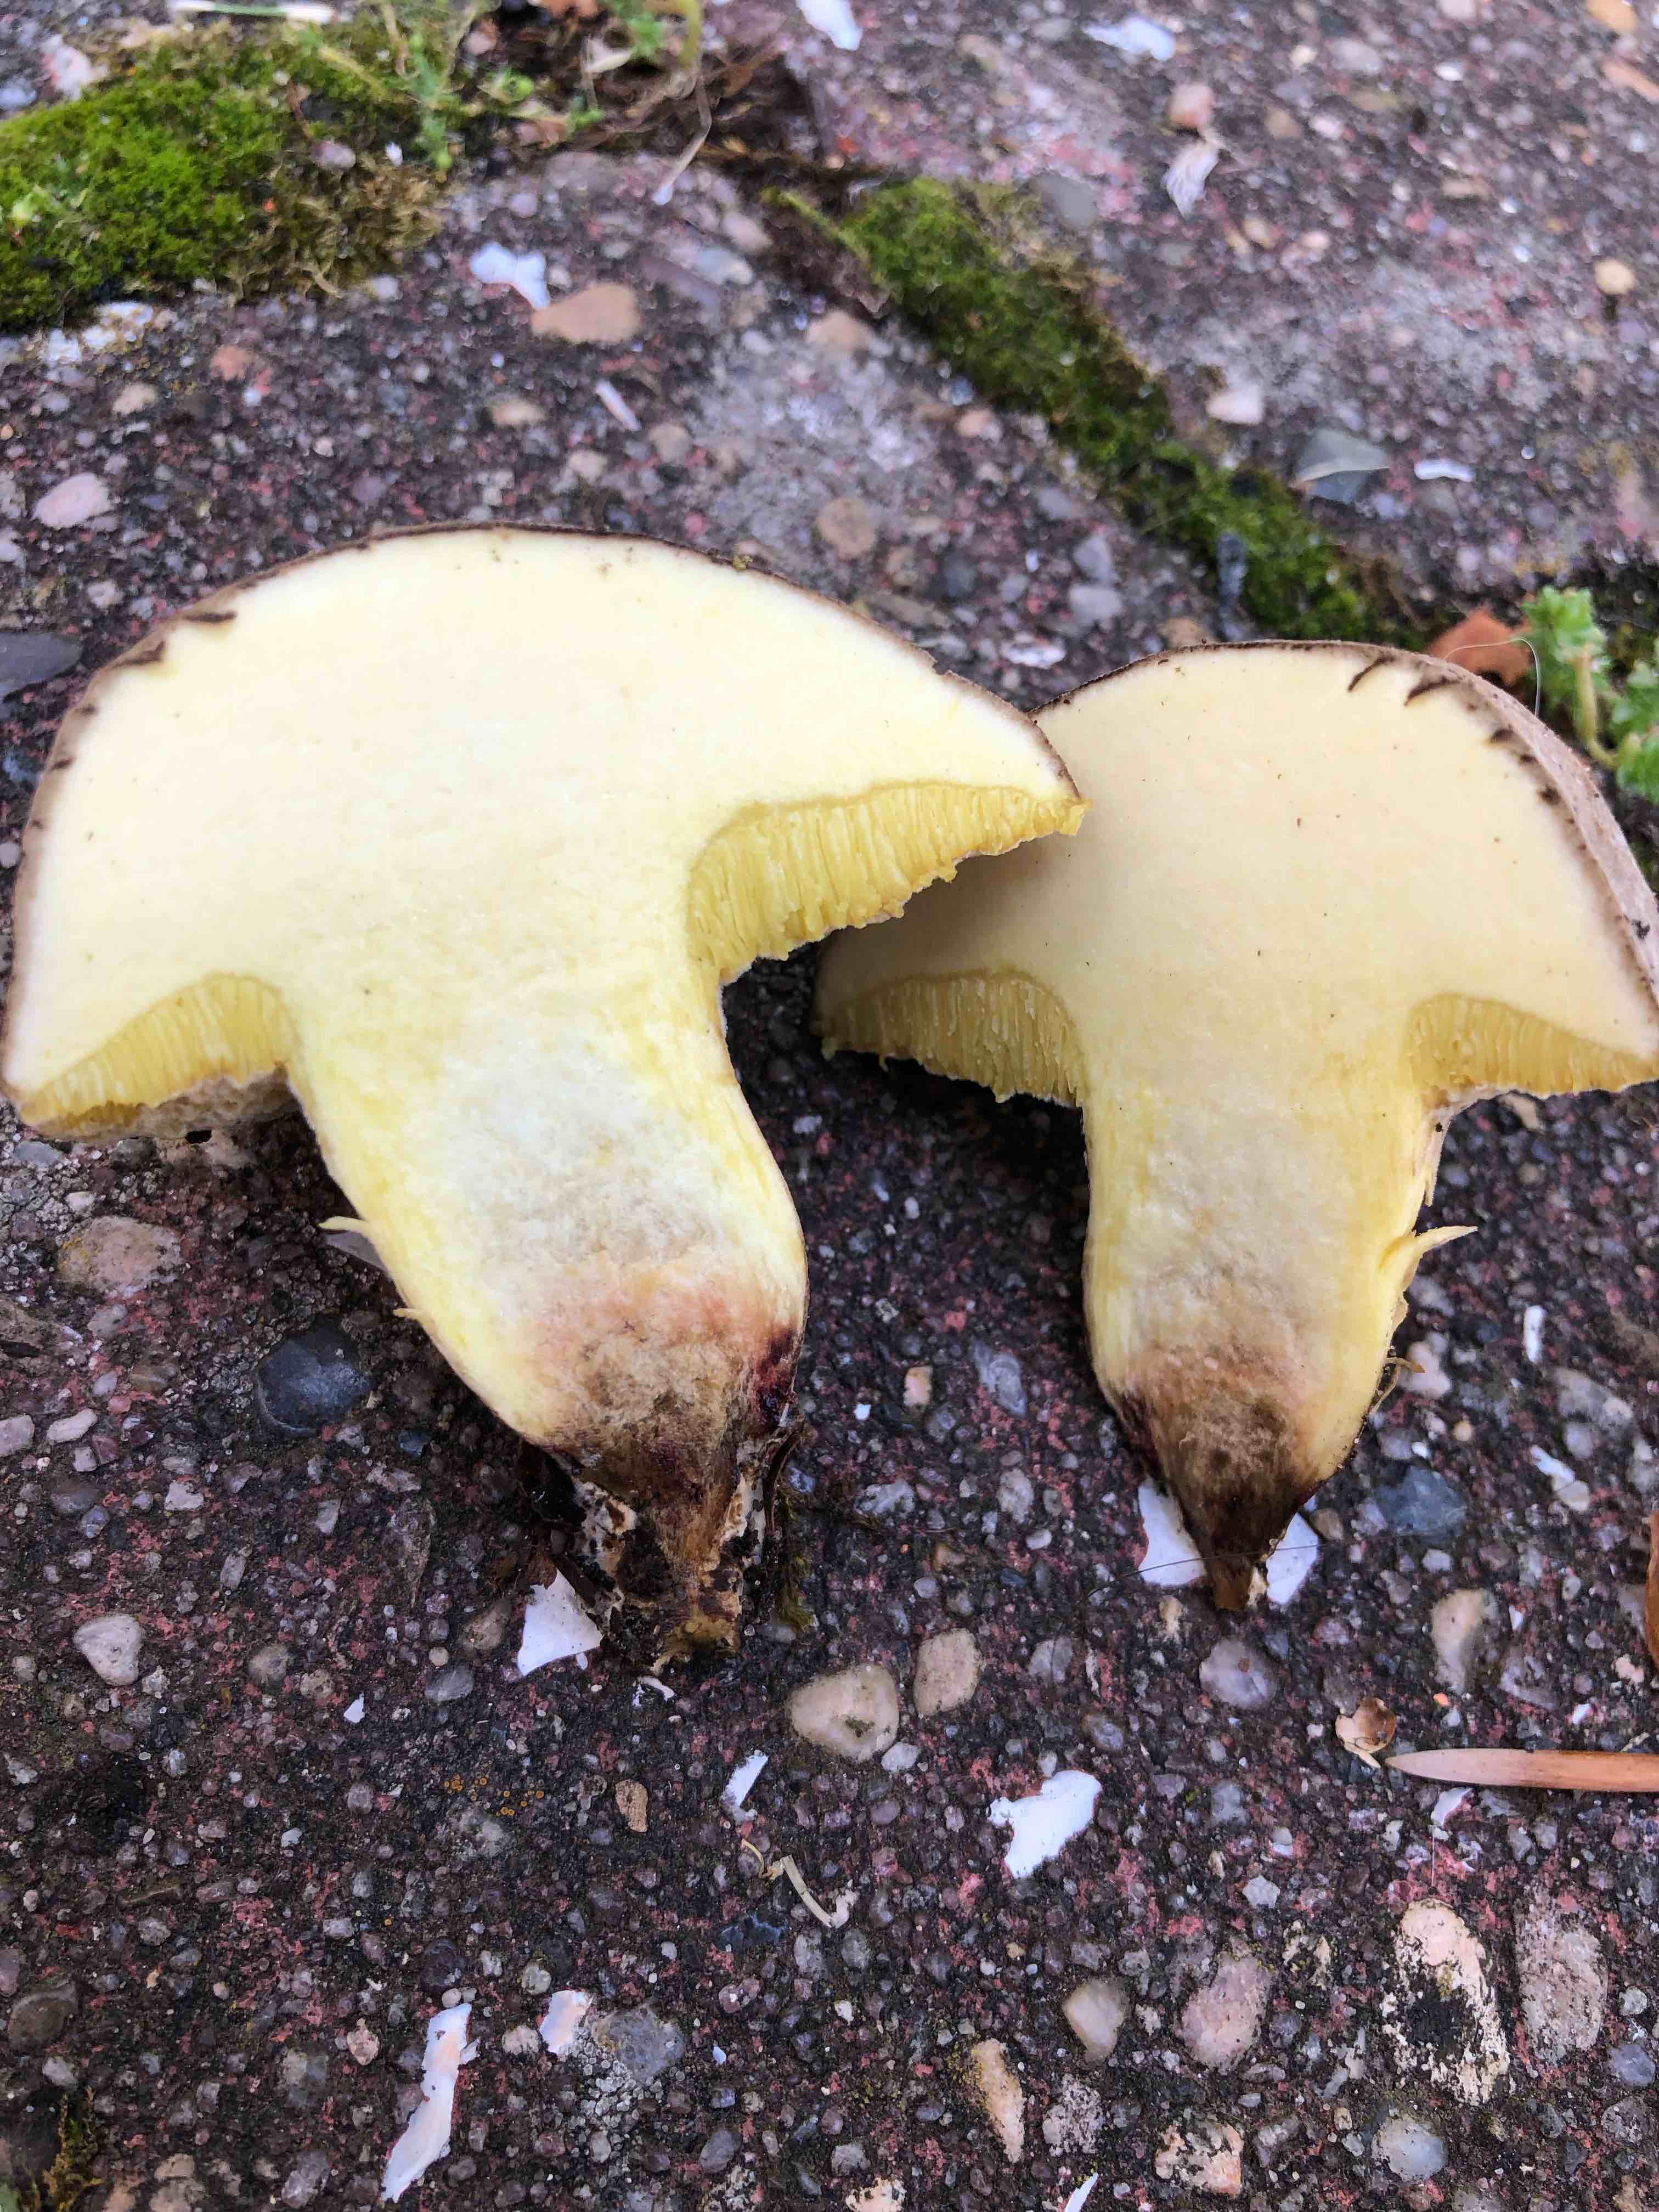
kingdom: Fungi
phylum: Basidiomycota
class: Agaricomycetes
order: Boletales
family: Boletaceae
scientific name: Boletaceae
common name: rørhatfamilien
